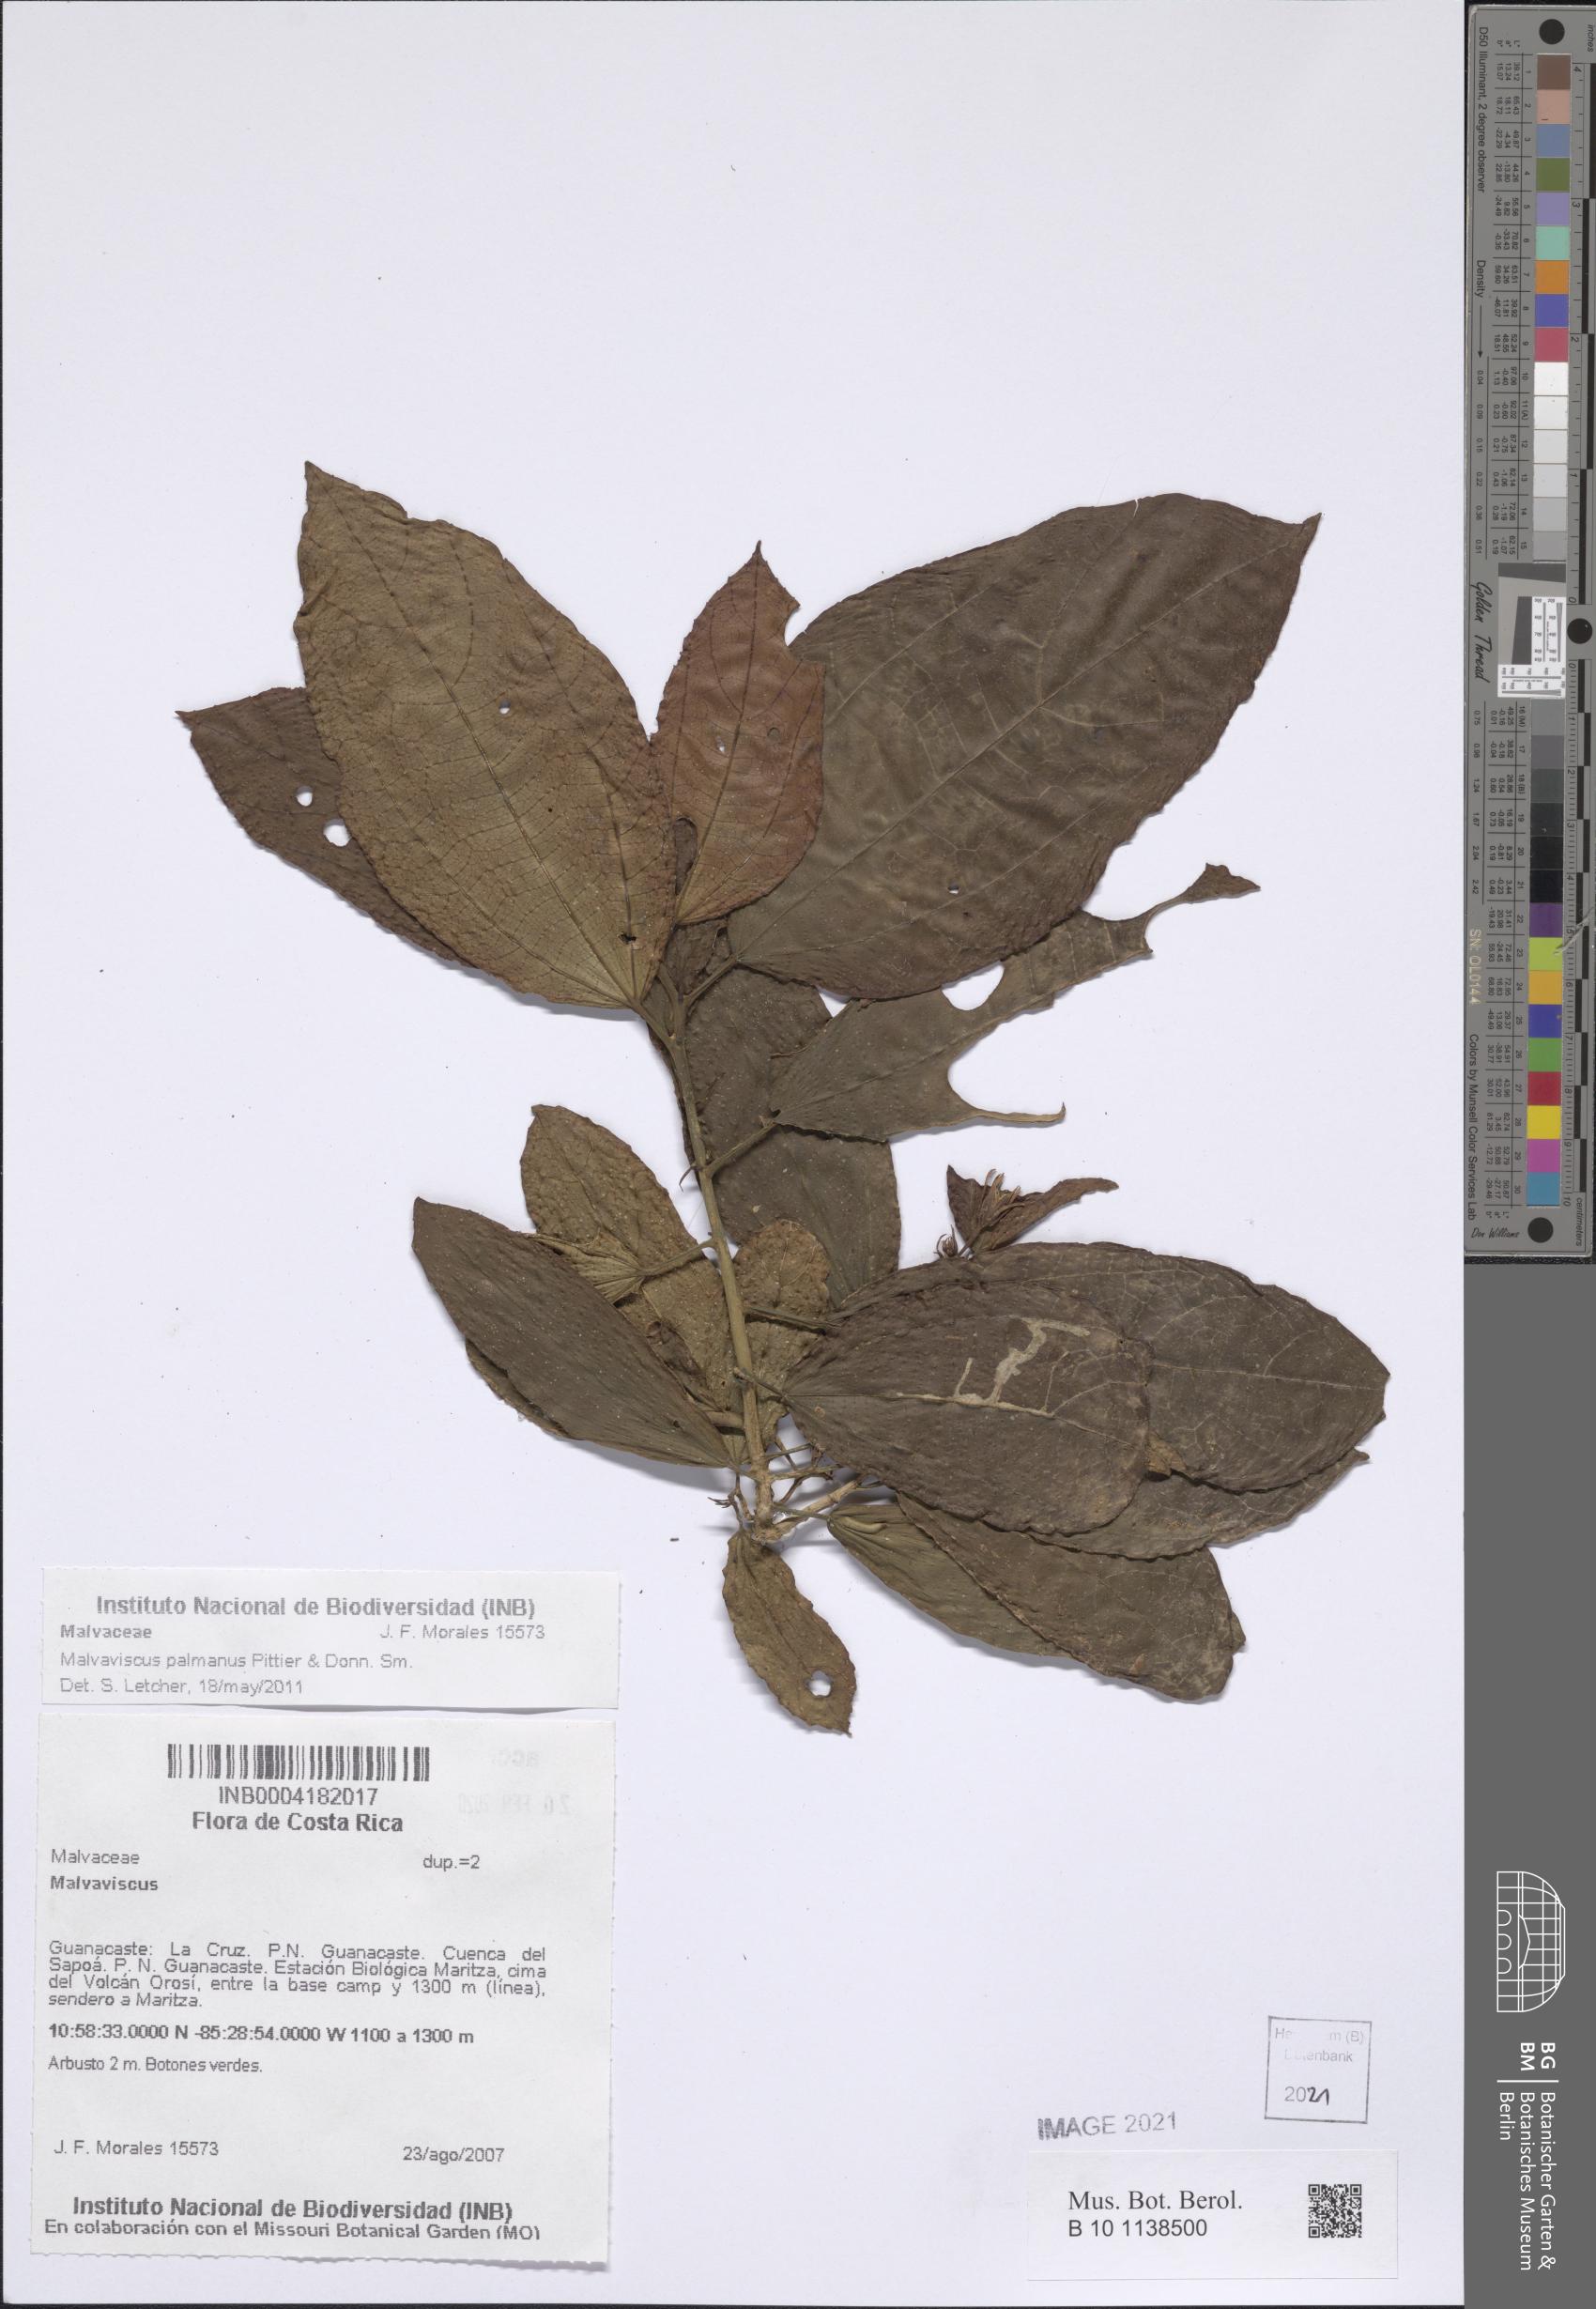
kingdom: Plantae
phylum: Tracheophyta
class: Magnoliopsida
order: Malvales
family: Malvaceae
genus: Malvaviscus
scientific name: Malvaviscus palmanus
